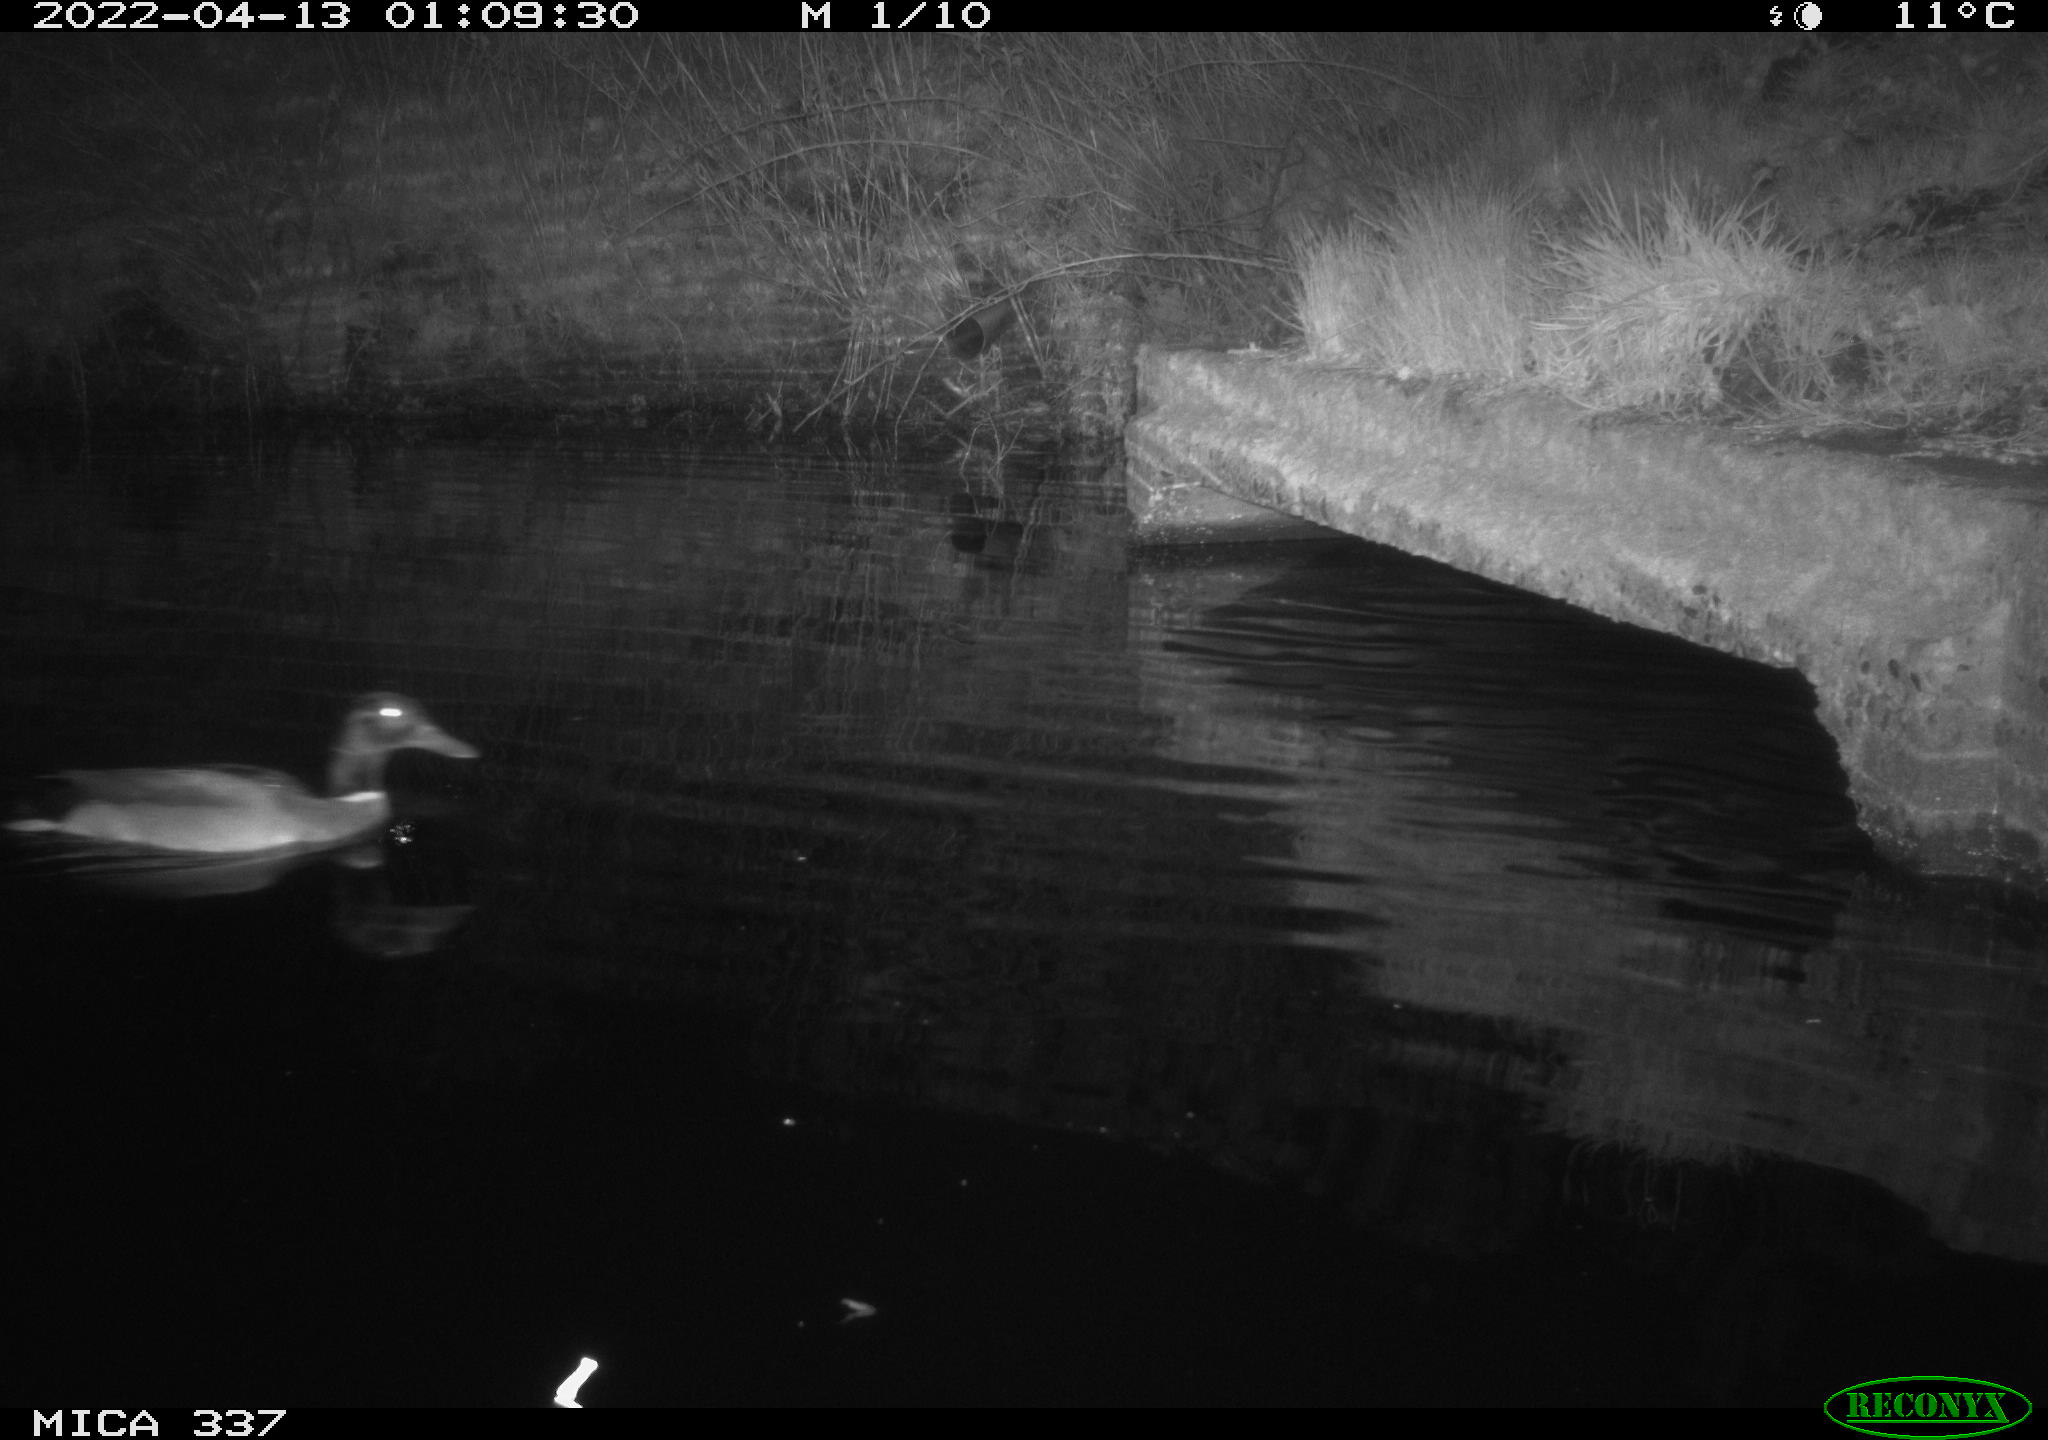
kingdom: Animalia
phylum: Chordata
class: Aves
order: Anseriformes
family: Anatidae
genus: Anas
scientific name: Anas platyrhynchos
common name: Mallard
